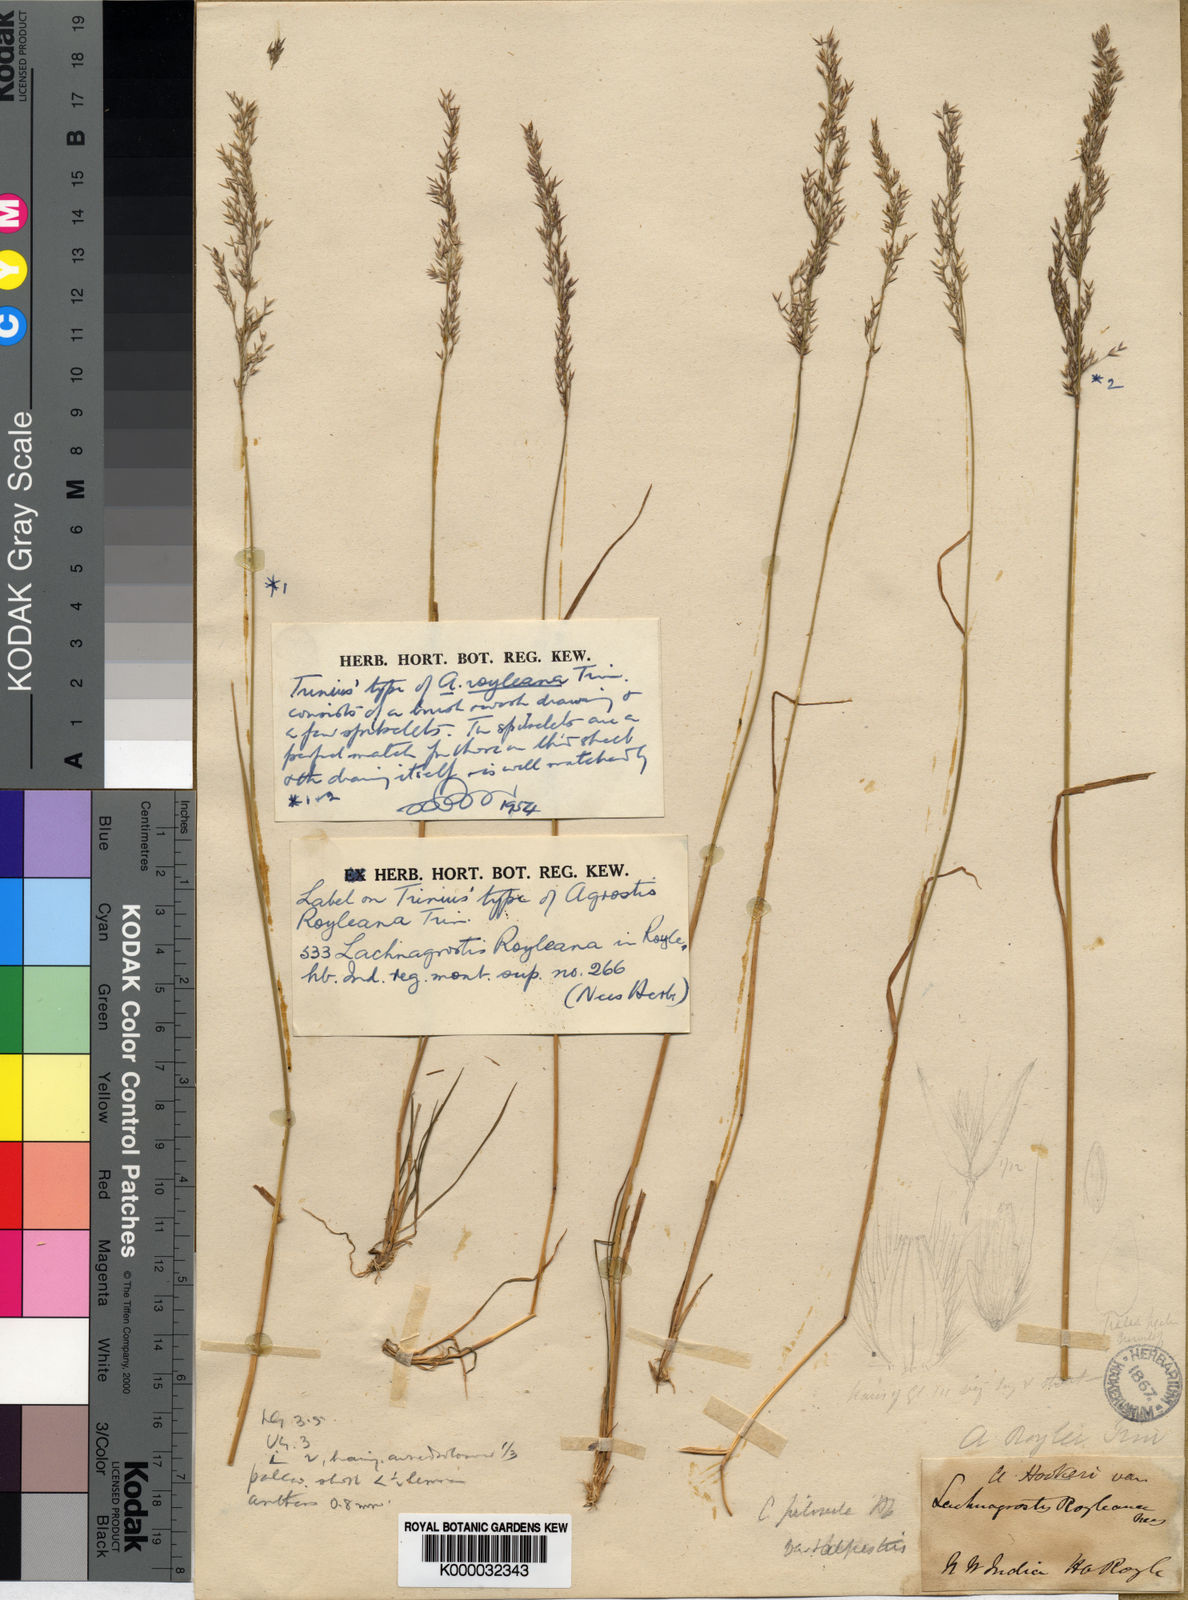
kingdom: Plantae
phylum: Tracheophyta
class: Liliopsida
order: Poales
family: Poaceae
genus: Agrostis
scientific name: Agrostis pilosula
